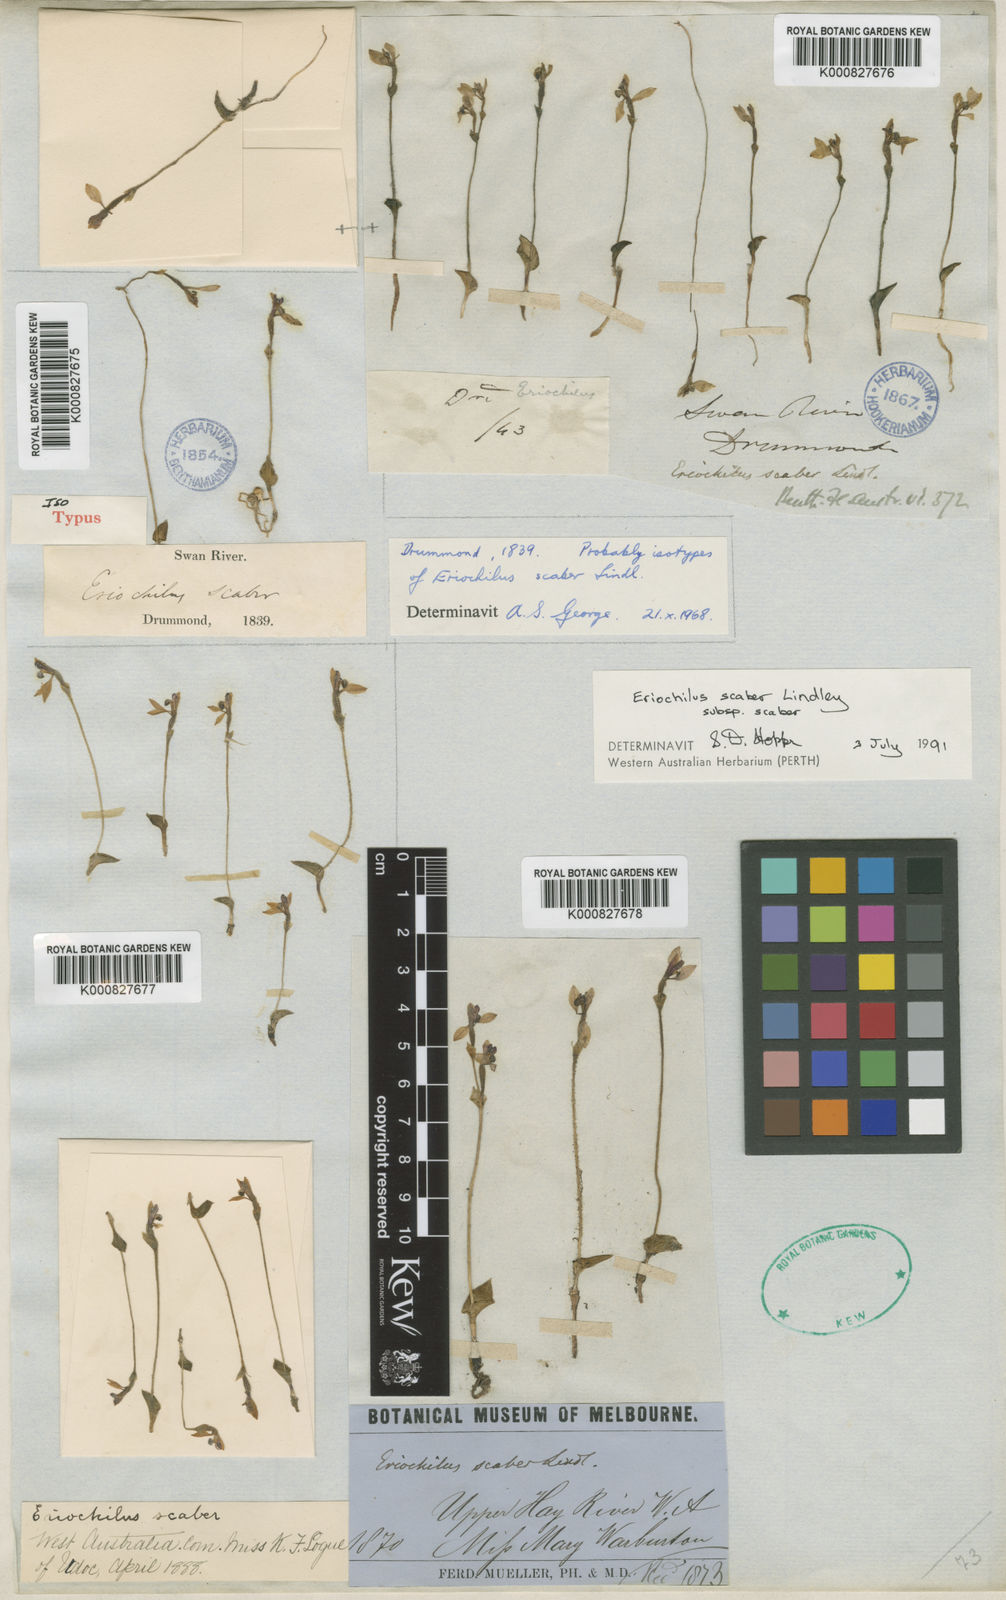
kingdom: Plantae
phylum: Tracheophyta
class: Liliopsida
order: Asparagales
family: Orchidaceae
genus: Eriochilus
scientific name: Eriochilus scaber
